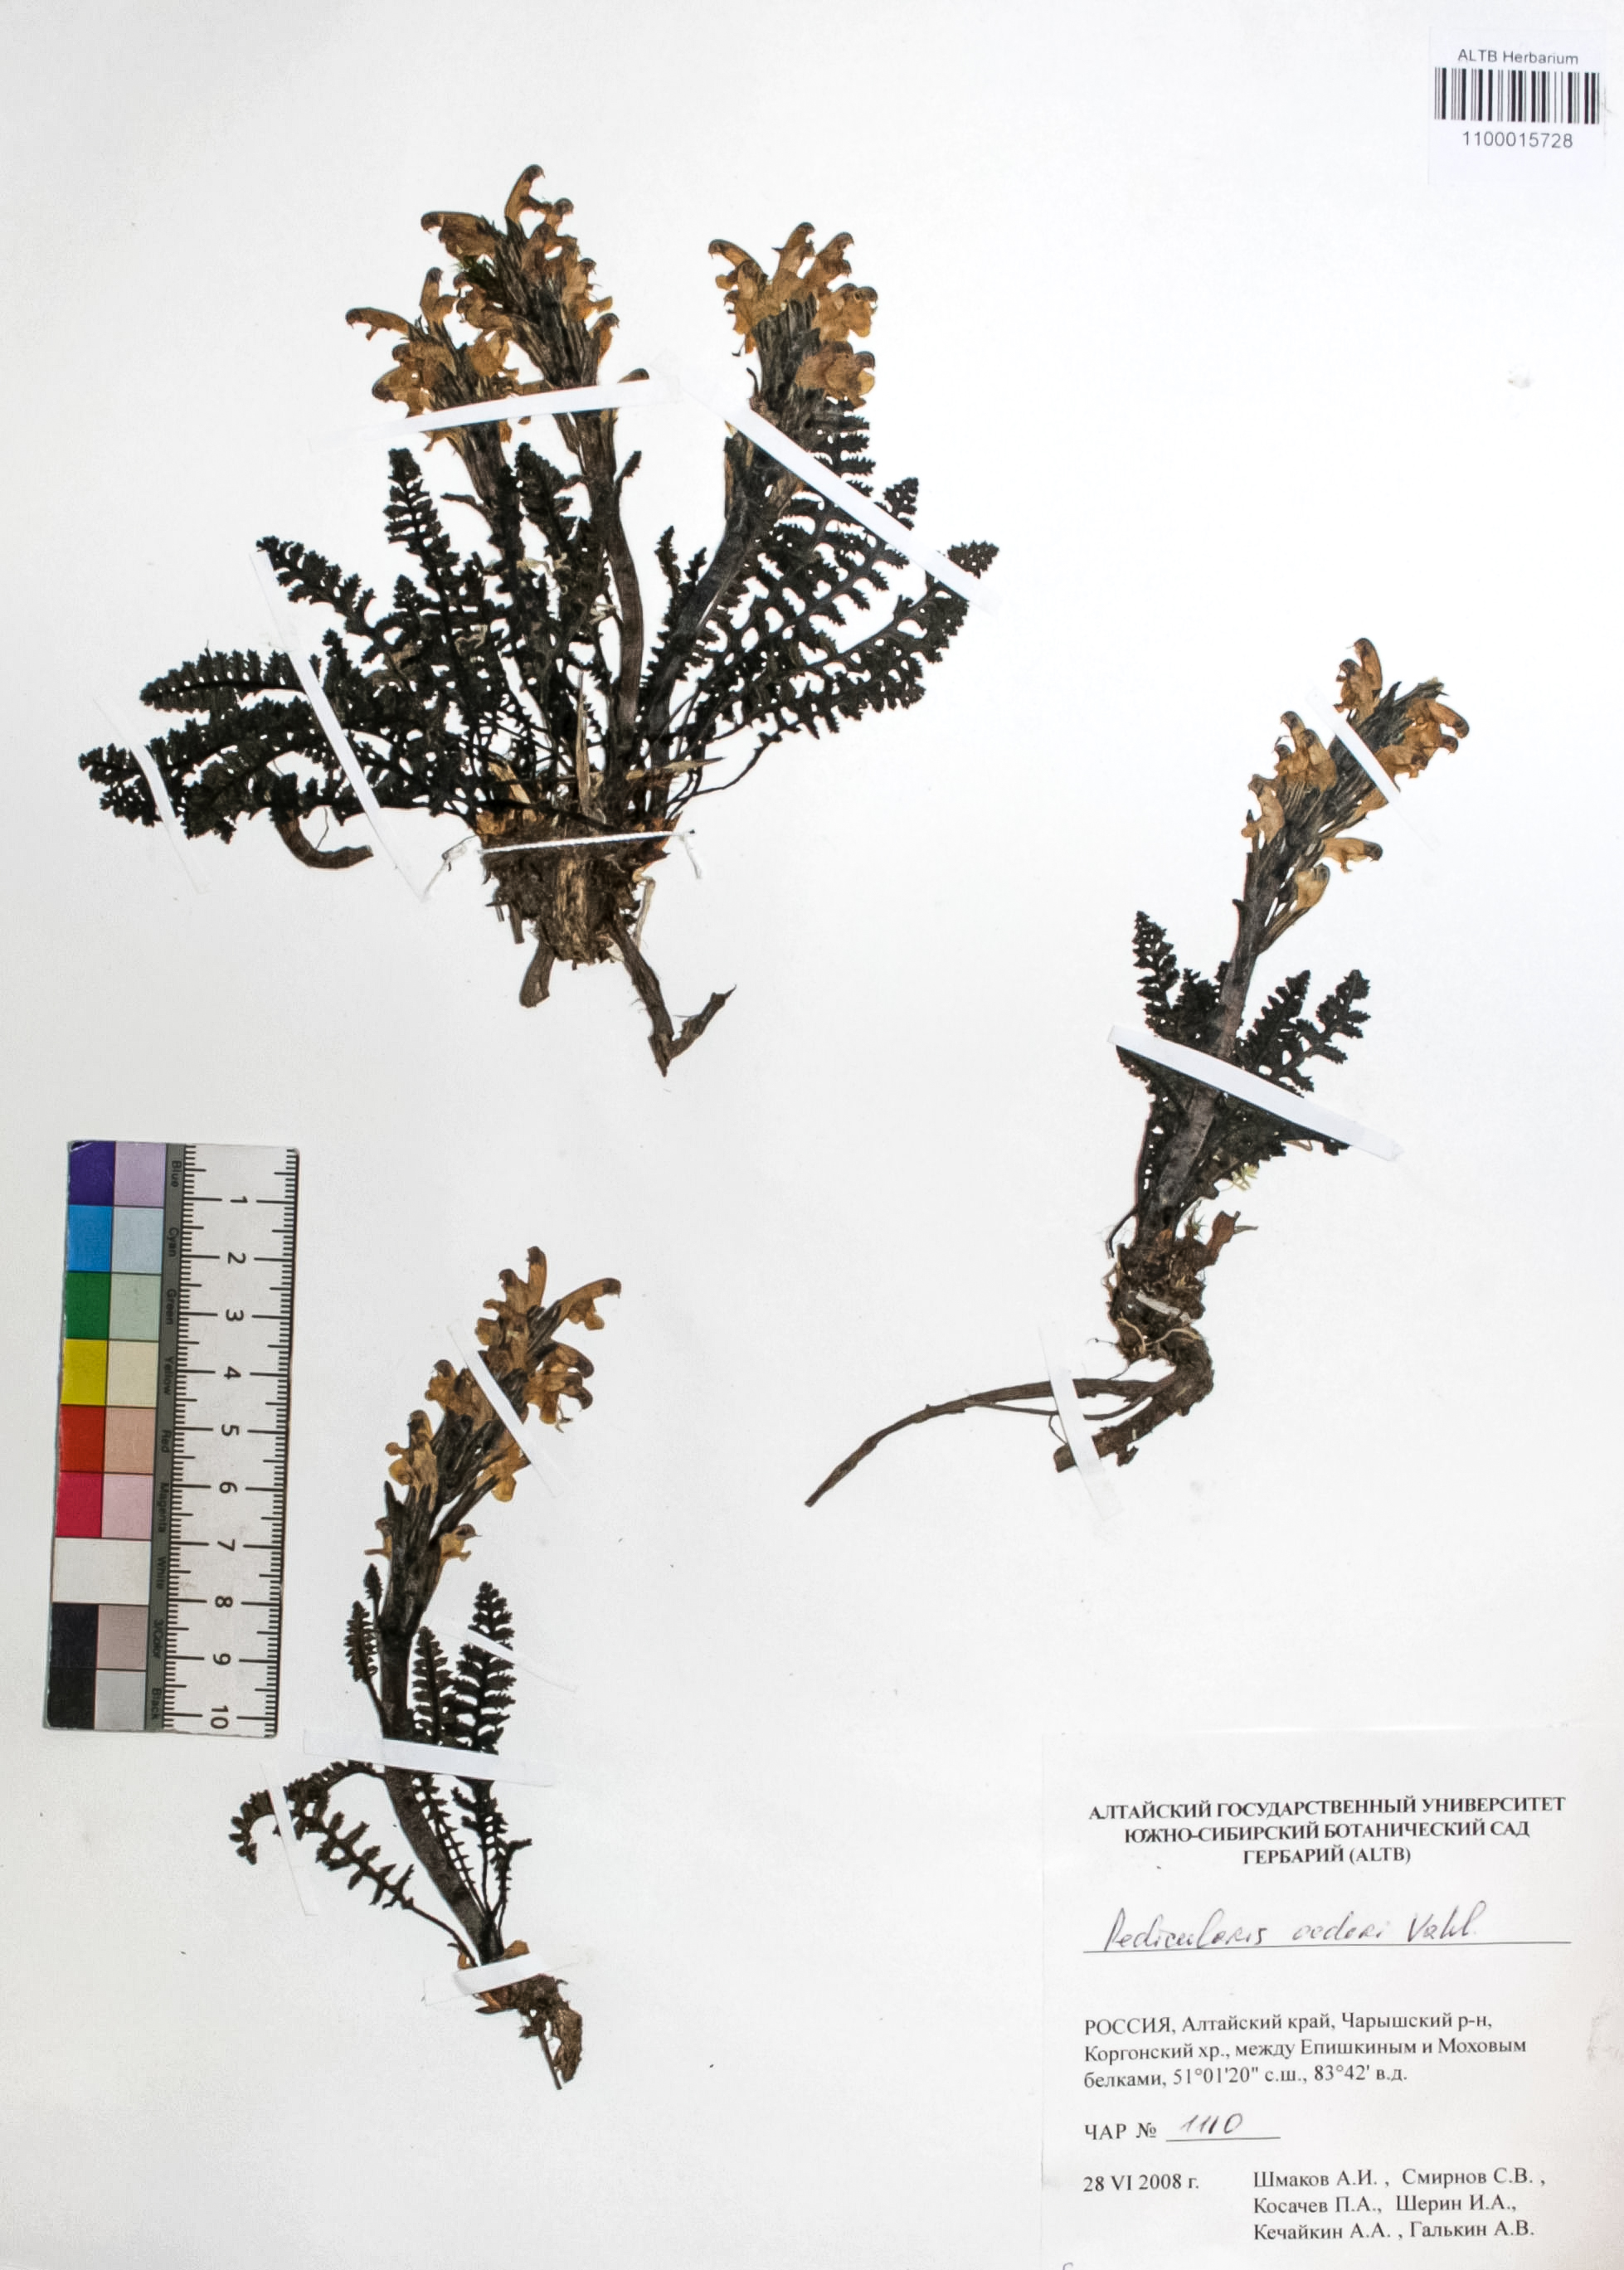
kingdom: Plantae
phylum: Tracheophyta
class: Magnoliopsida
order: Caryophyllales
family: Caryophyllaceae
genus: Silene
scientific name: Silene graminifolia
